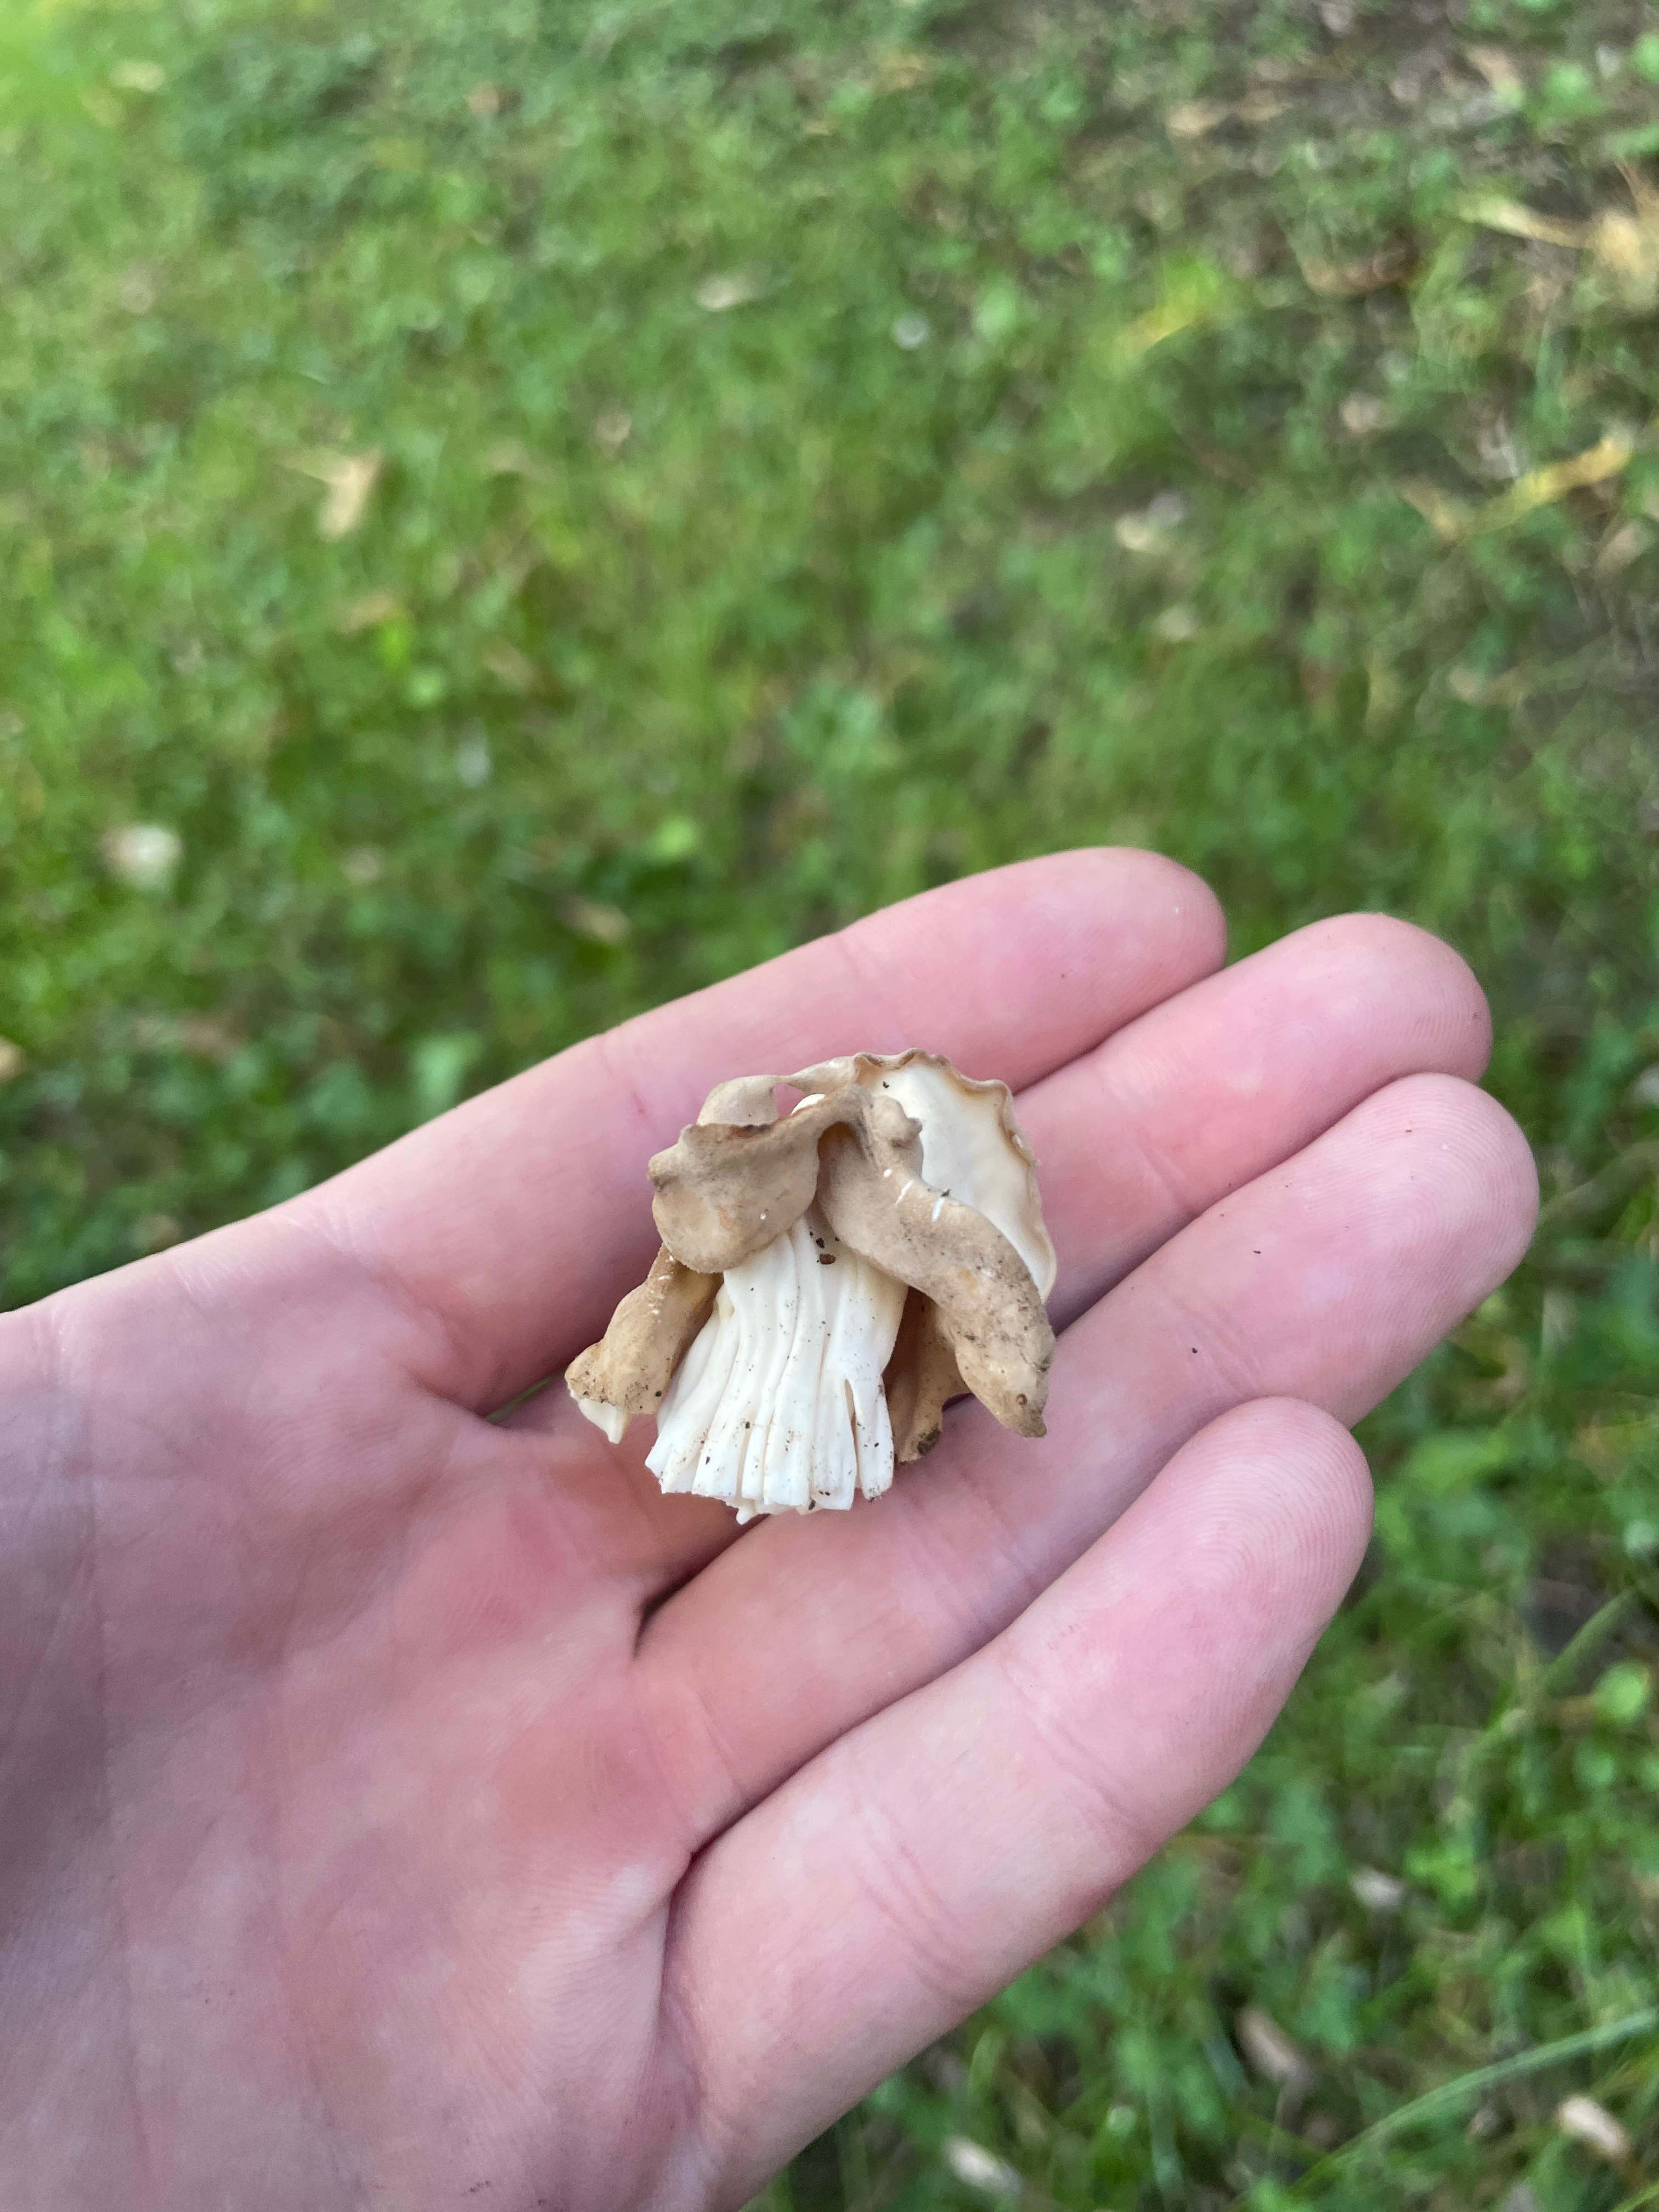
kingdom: Fungi
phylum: Ascomycota
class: Pezizomycetes
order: Pezizales
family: Helvellaceae
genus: Helvella
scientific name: Helvella crispa
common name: kruset foldhat
